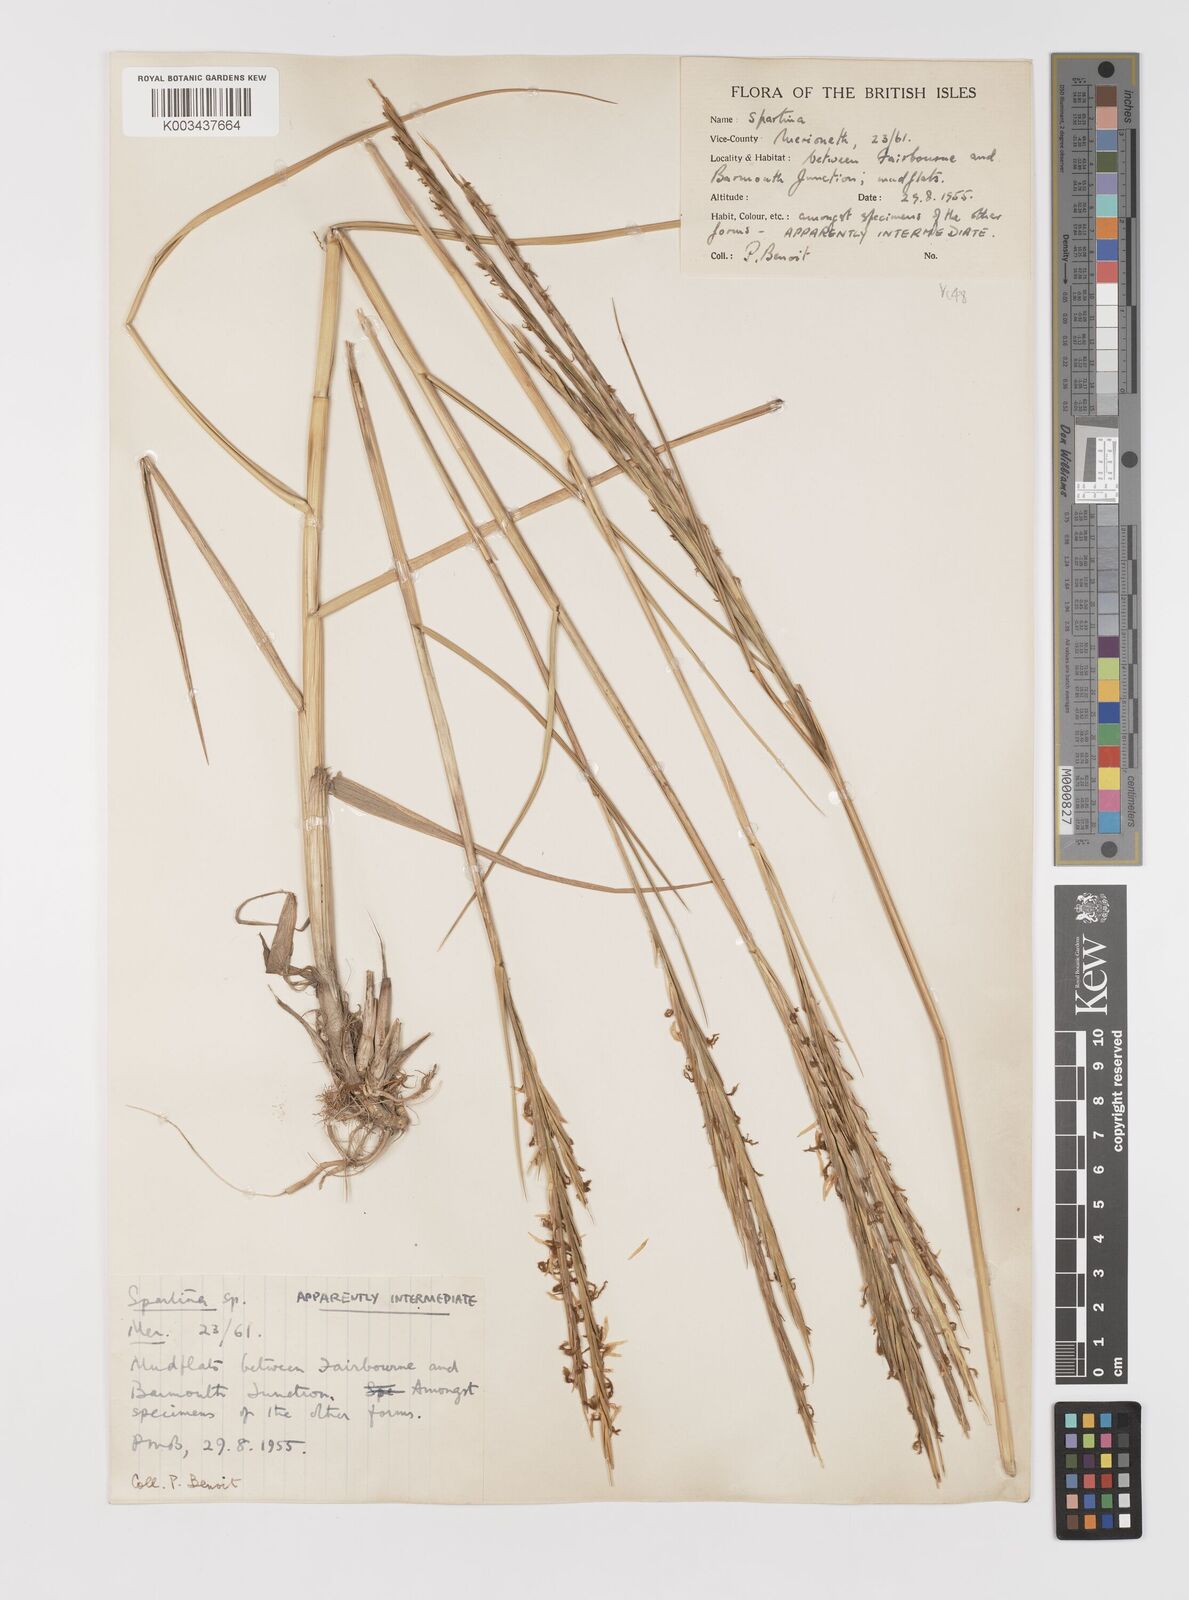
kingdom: Plantae
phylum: Tracheophyta
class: Liliopsida
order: Poales
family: Poaceae
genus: Sporobolus
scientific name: Sporobolus anglicus
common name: English cordgrass
